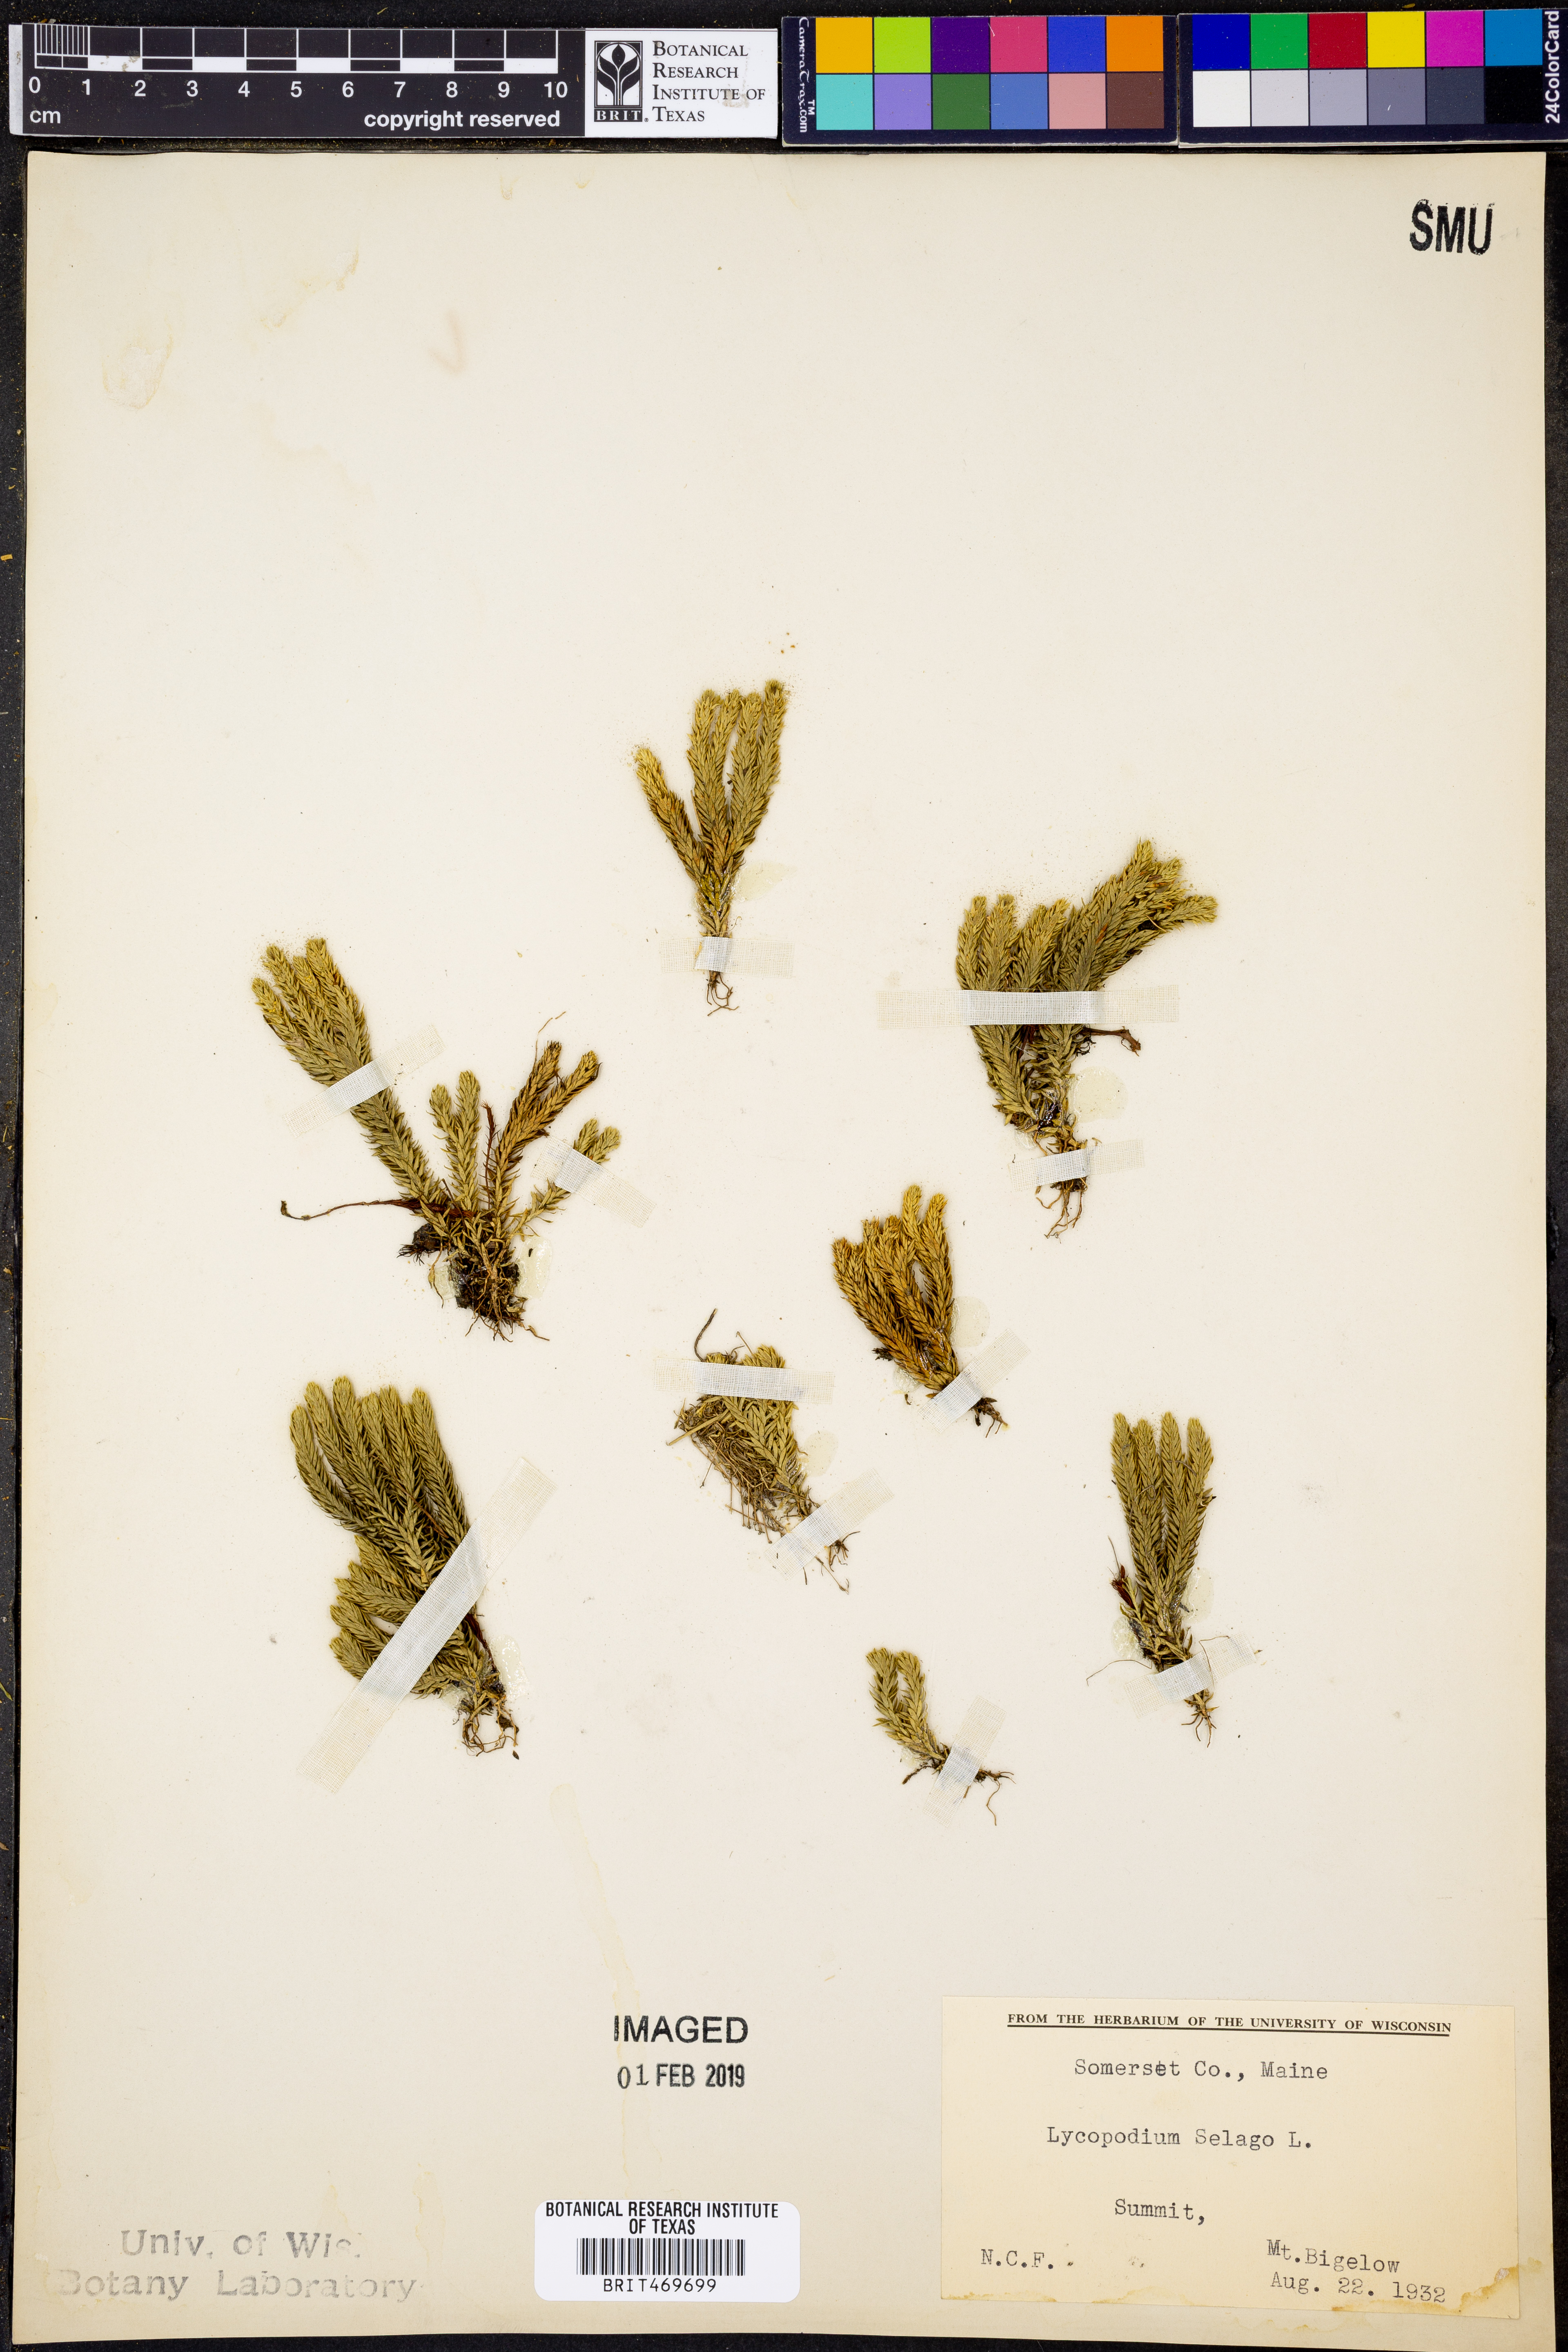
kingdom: Plantae
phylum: Tracheophyta
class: Lycopodiopsida
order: Lycopodiales
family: Lycopodiaceae
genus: Huperzia
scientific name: Huperzia selago
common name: Northern firmoss
